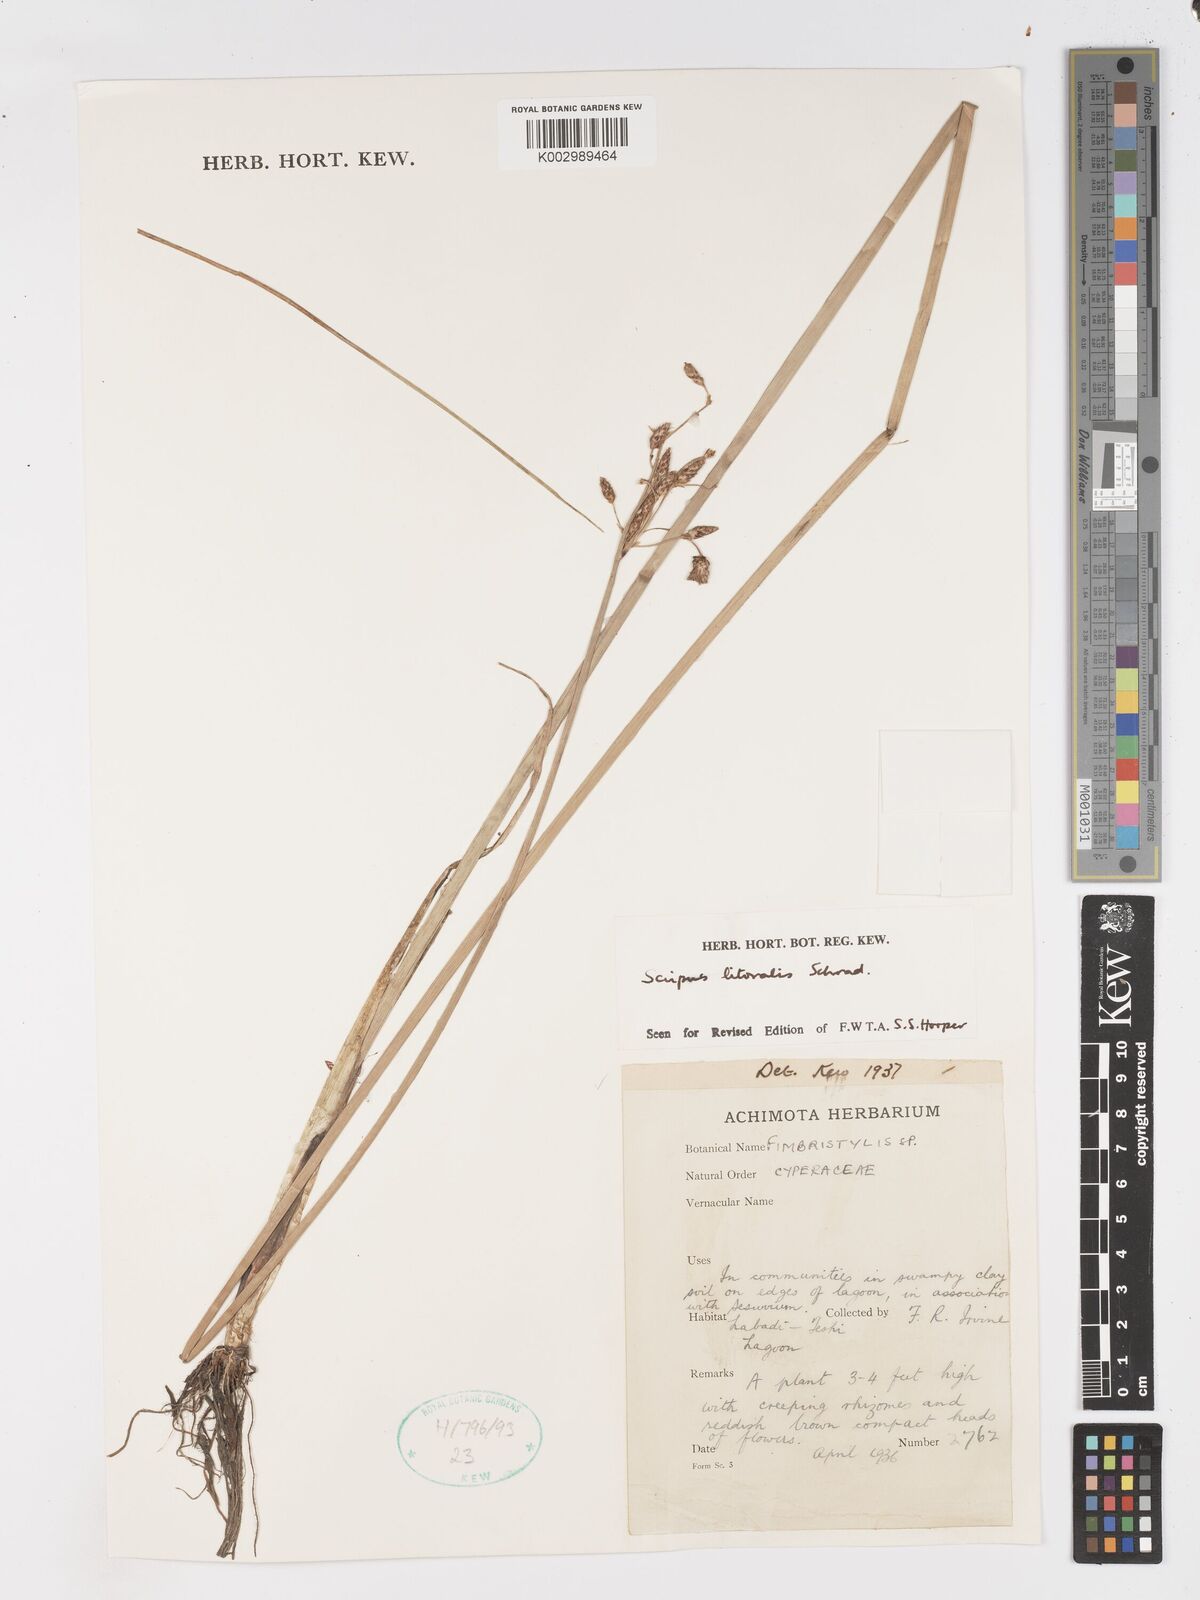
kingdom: Plantae
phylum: Tracheophyta
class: Liliopsida
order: Poales
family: Cyperaceae
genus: Schoenoplectus
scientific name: Schoenoplectus litoralis
